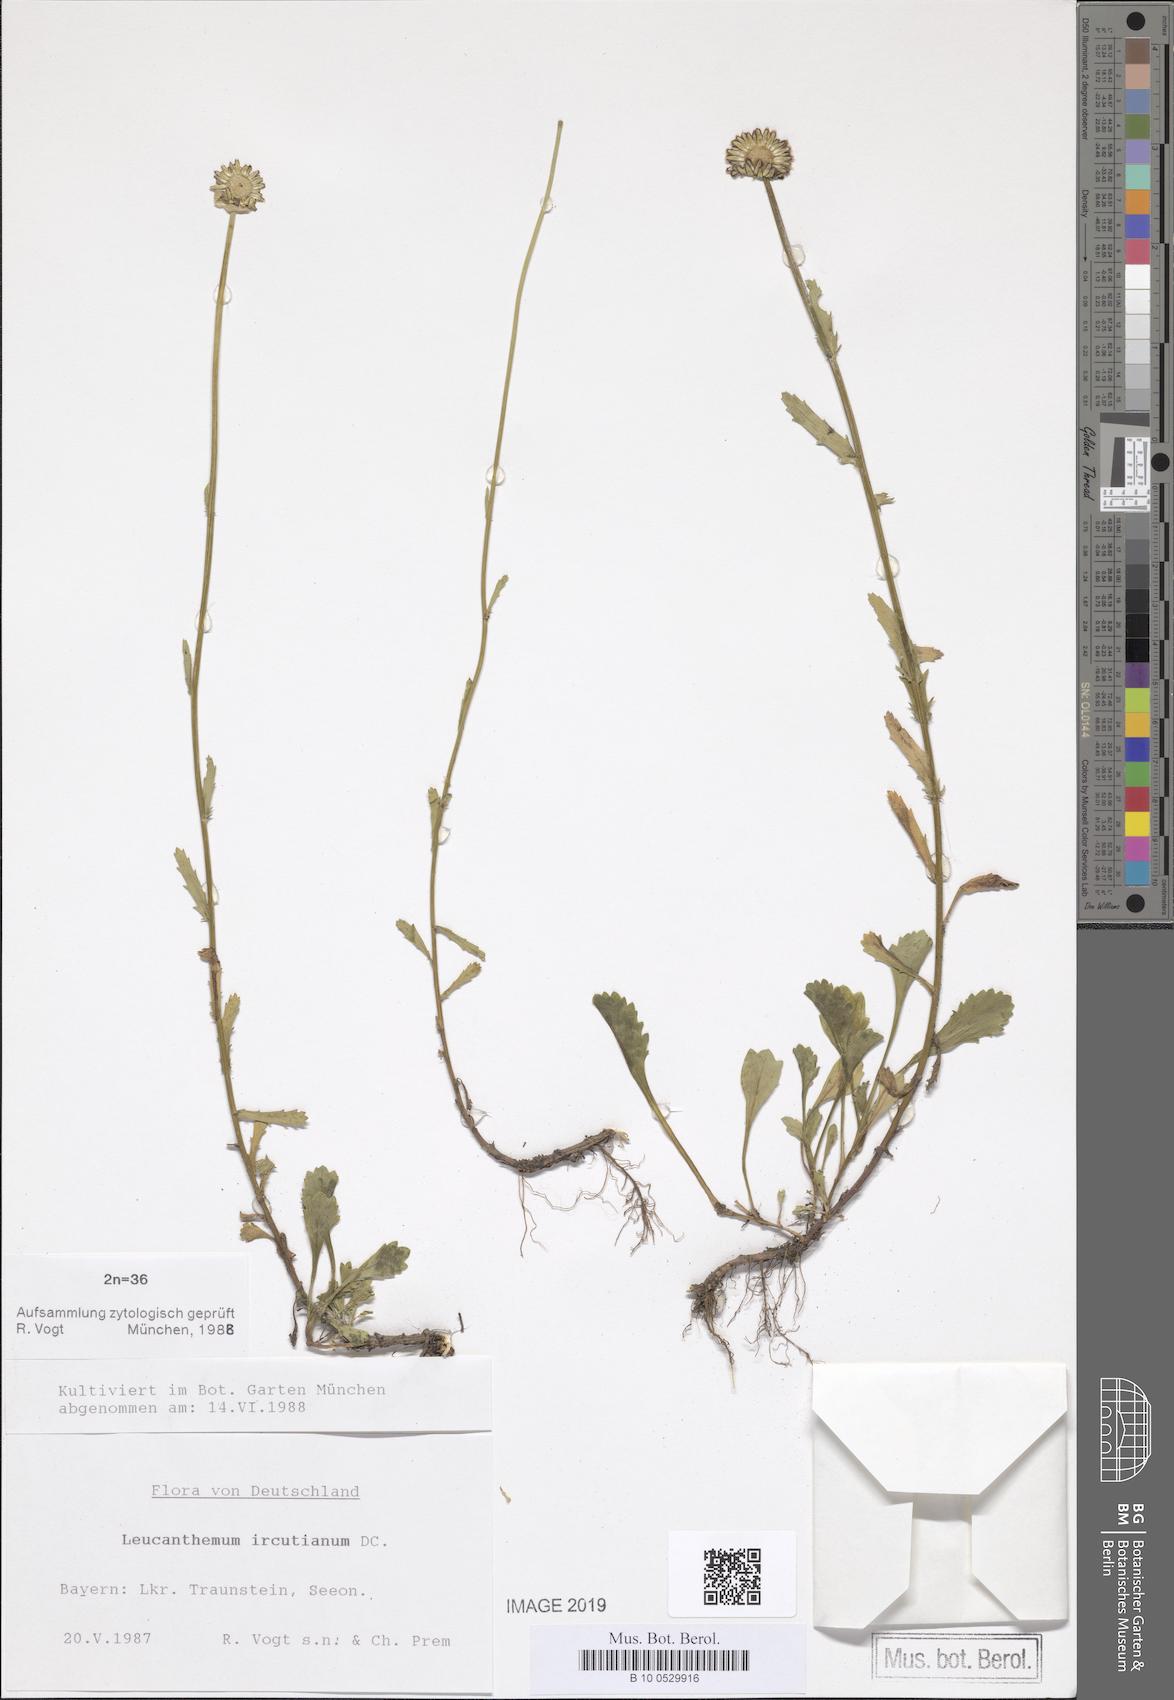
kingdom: Plantae
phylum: Tracheophyta
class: Magnoliopsida
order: Asterales
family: Asteraceae
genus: Leucanthemum
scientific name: Leucanthemum ircutianum
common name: Daisy
